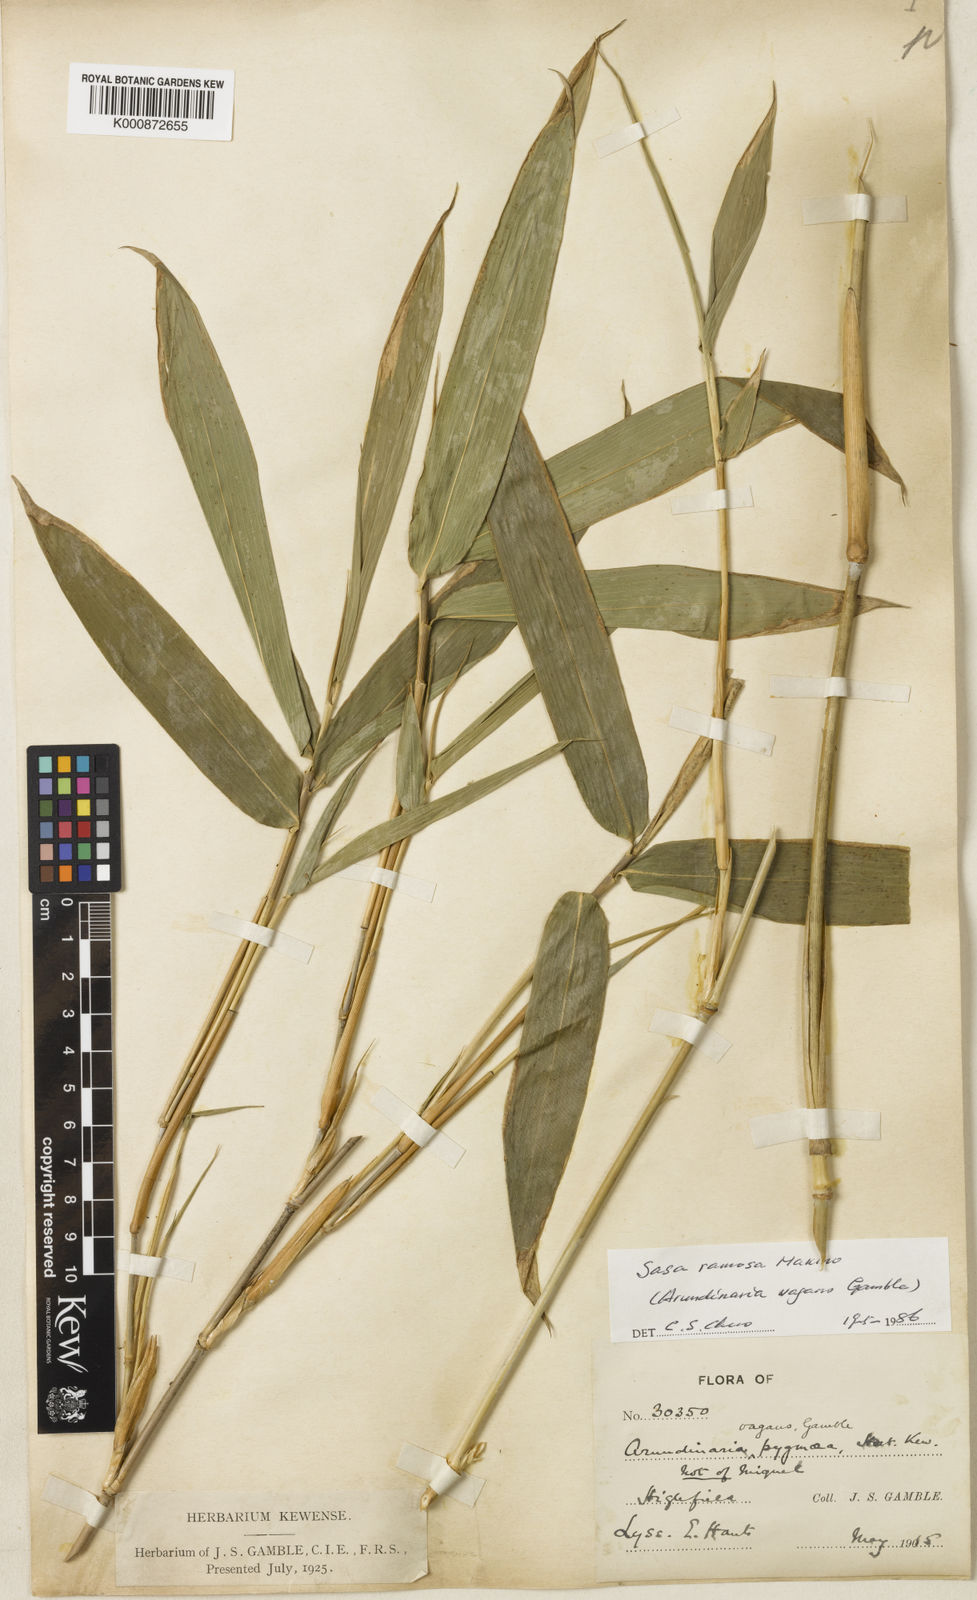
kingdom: Plantae
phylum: Tracheophyta
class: Liliopsida
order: Poales
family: Poaceae
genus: Sasa
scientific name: Sasa
